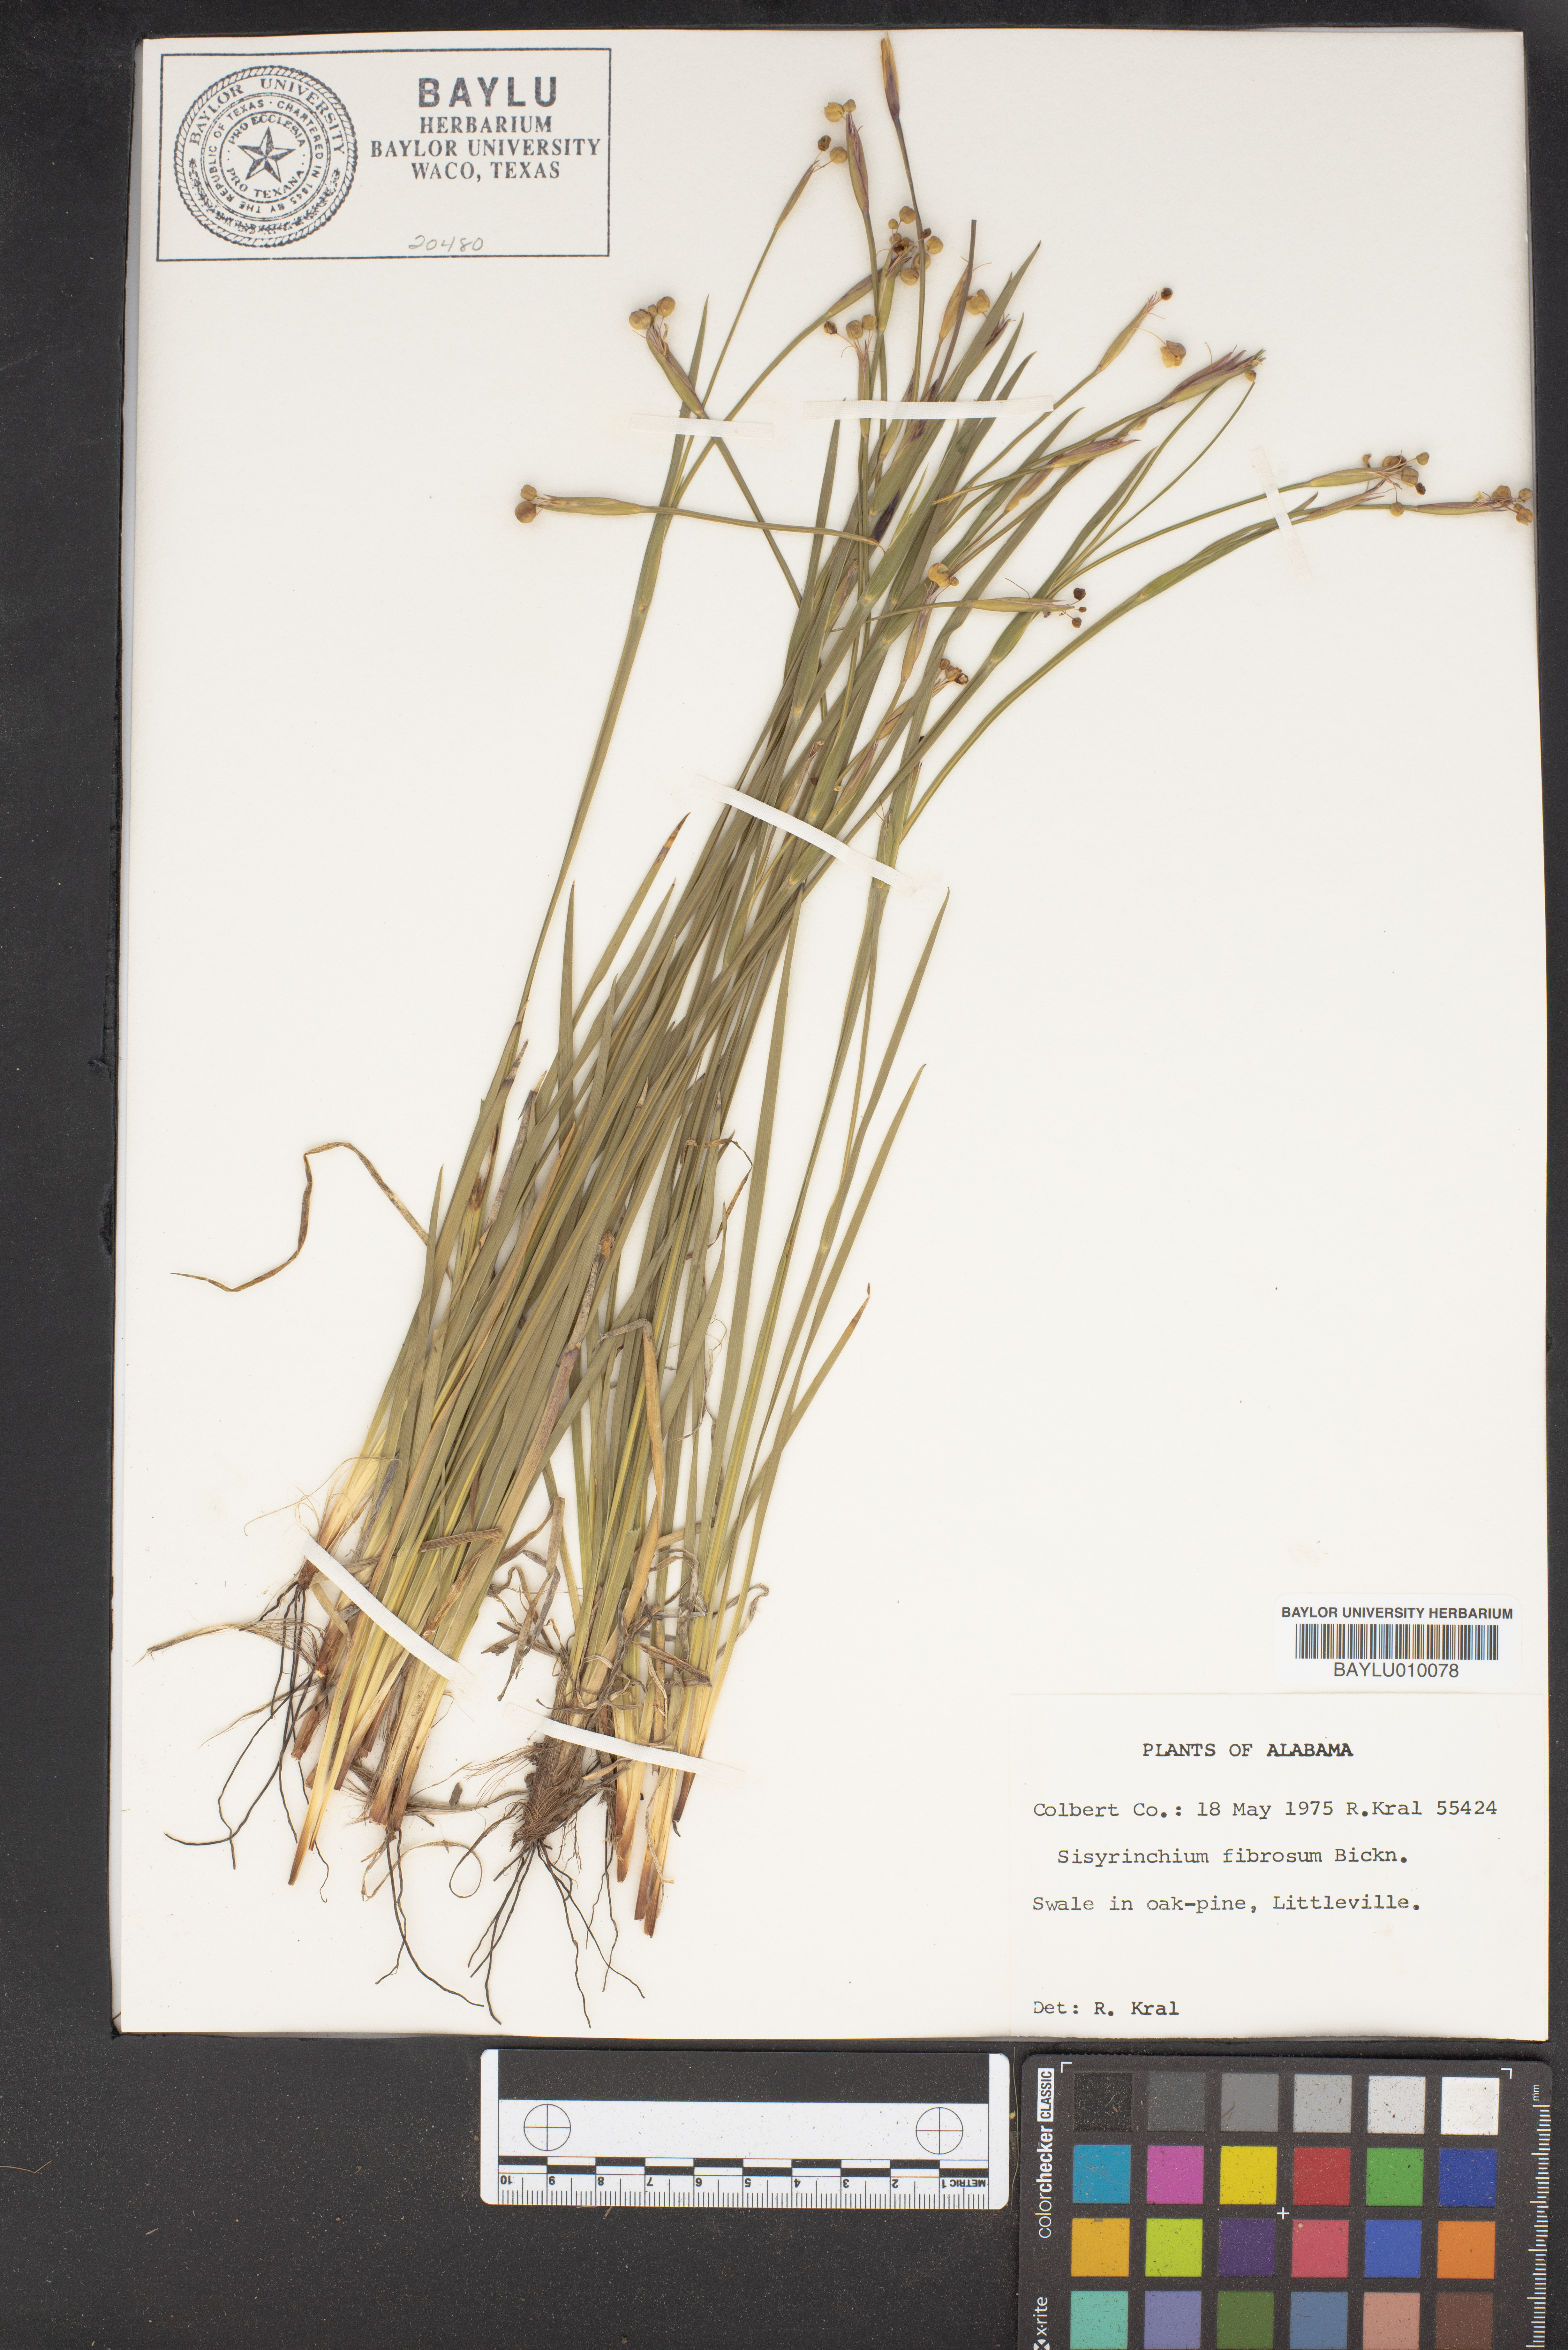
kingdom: Plantae
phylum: Tracheophyta
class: Liliopsida
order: Asparagales
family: Iridaceae
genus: Sisyrinchium
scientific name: Sisyrinchium nashii
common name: Nash's blue-eyed-grass
